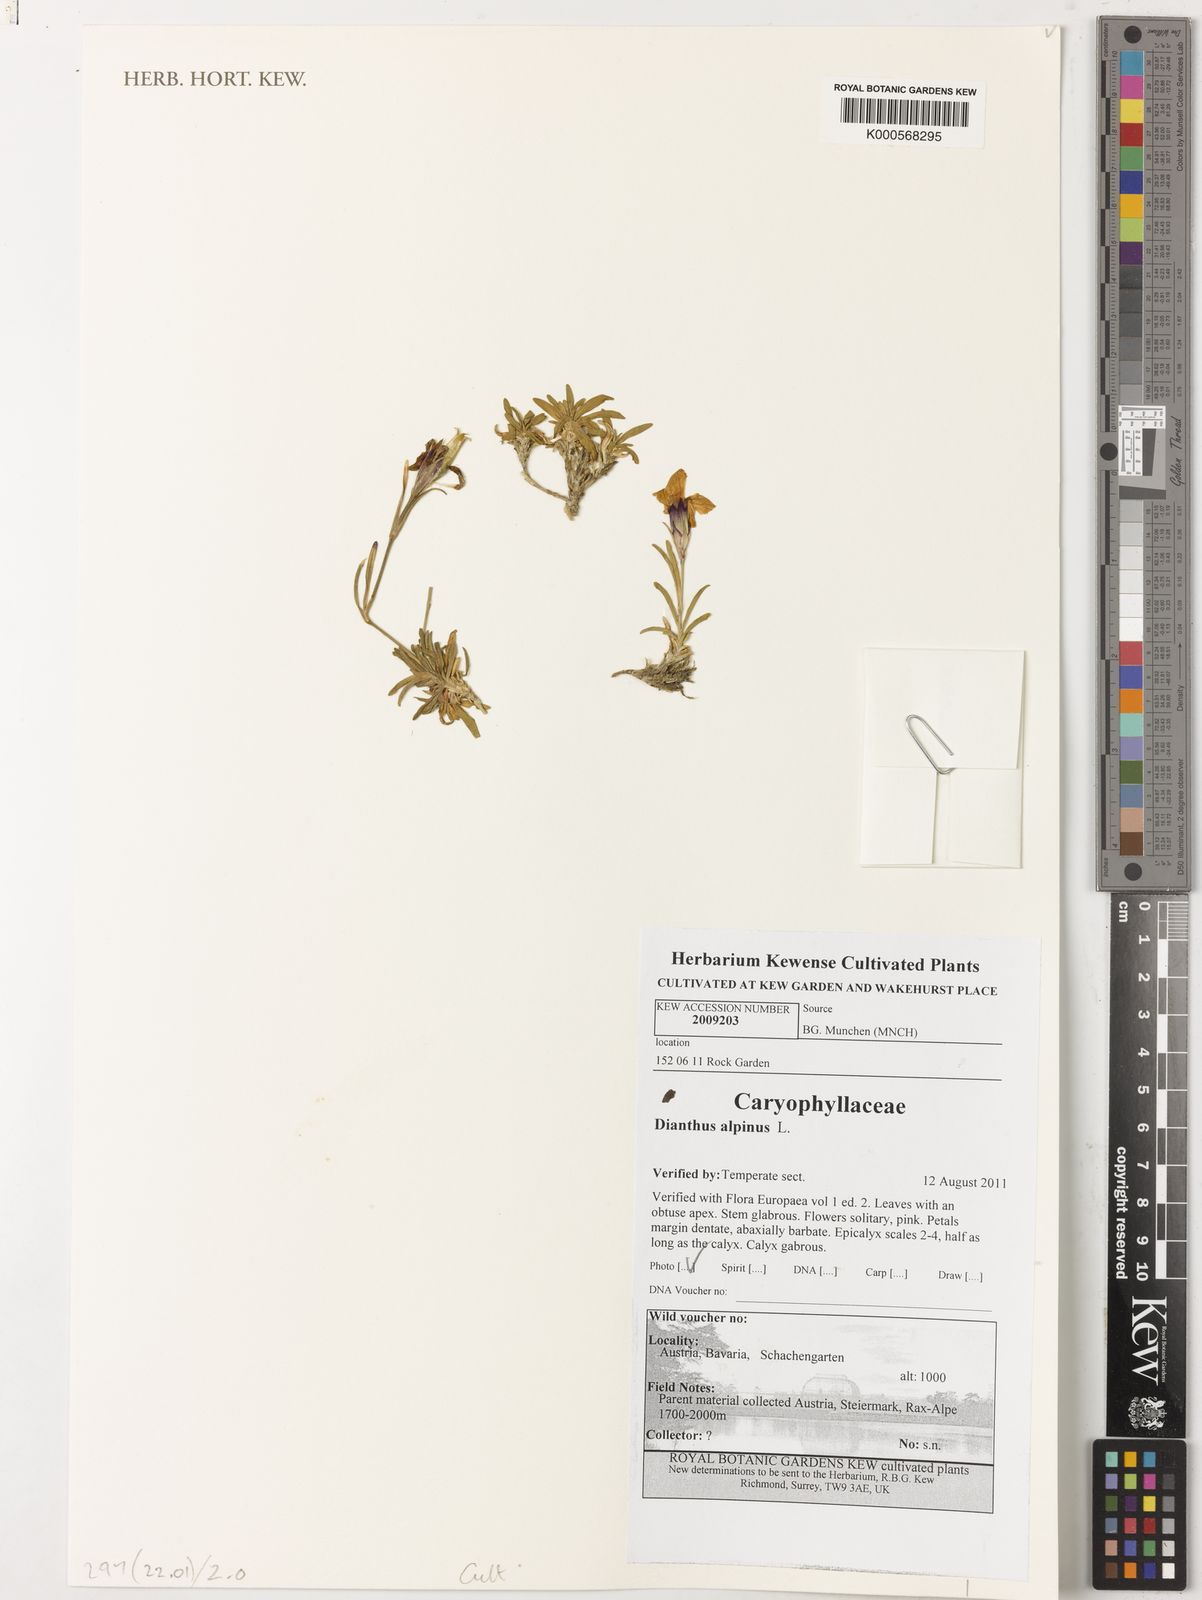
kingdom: Plantae
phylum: Tracheophyta
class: Magnoliopsida
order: Solanales
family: Solanaceae
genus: Solanum
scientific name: Solanum dulcamara
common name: Climbing nightshade
